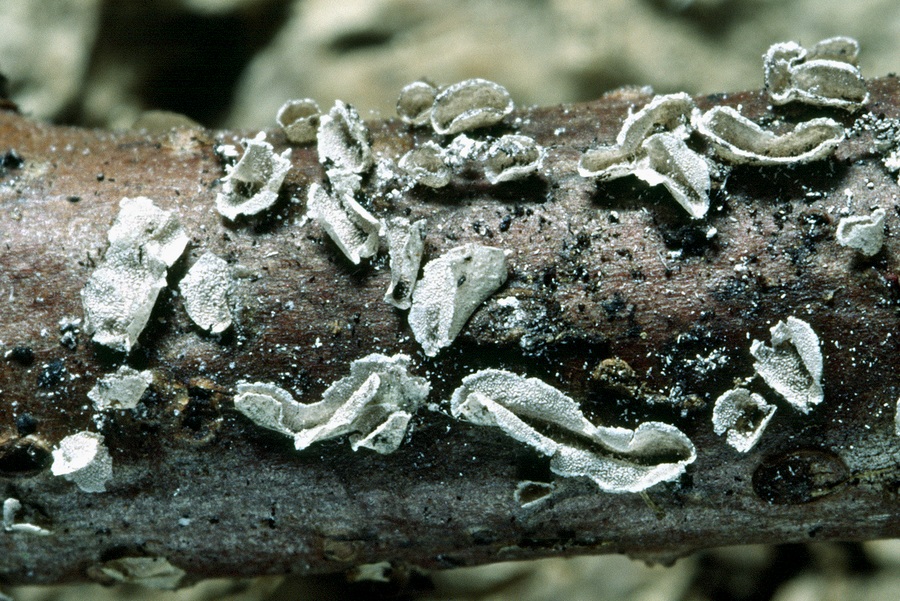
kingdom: Protozoa
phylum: Mycetozoa
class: Myxomycetes
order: Physarales
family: Physaraceae
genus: Physarum
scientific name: Physarum bivalve
